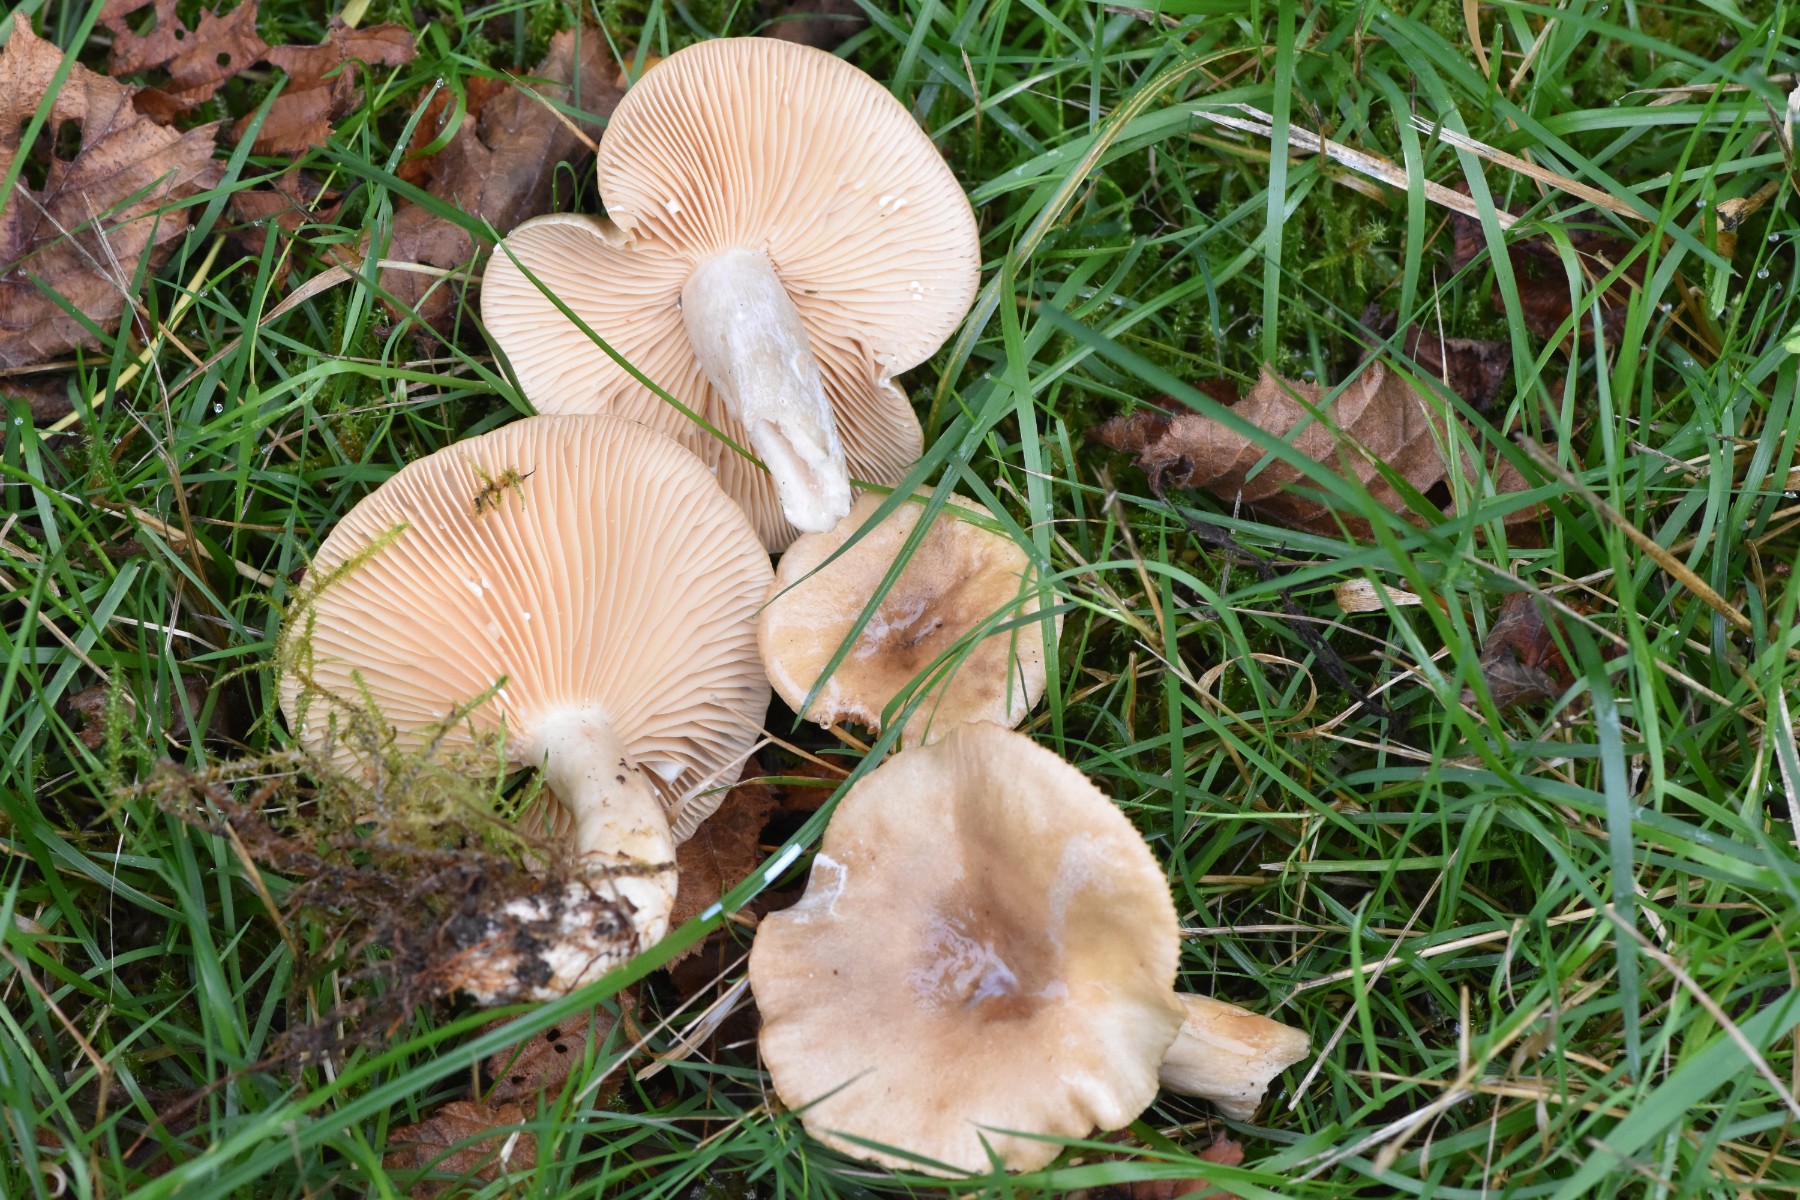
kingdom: Fungi
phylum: Basidiomycota
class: Agaricomycetes
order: Russulales
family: Russulaceae
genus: Lactarius
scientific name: Lactarius vietus
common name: violetgrå mælkehat
